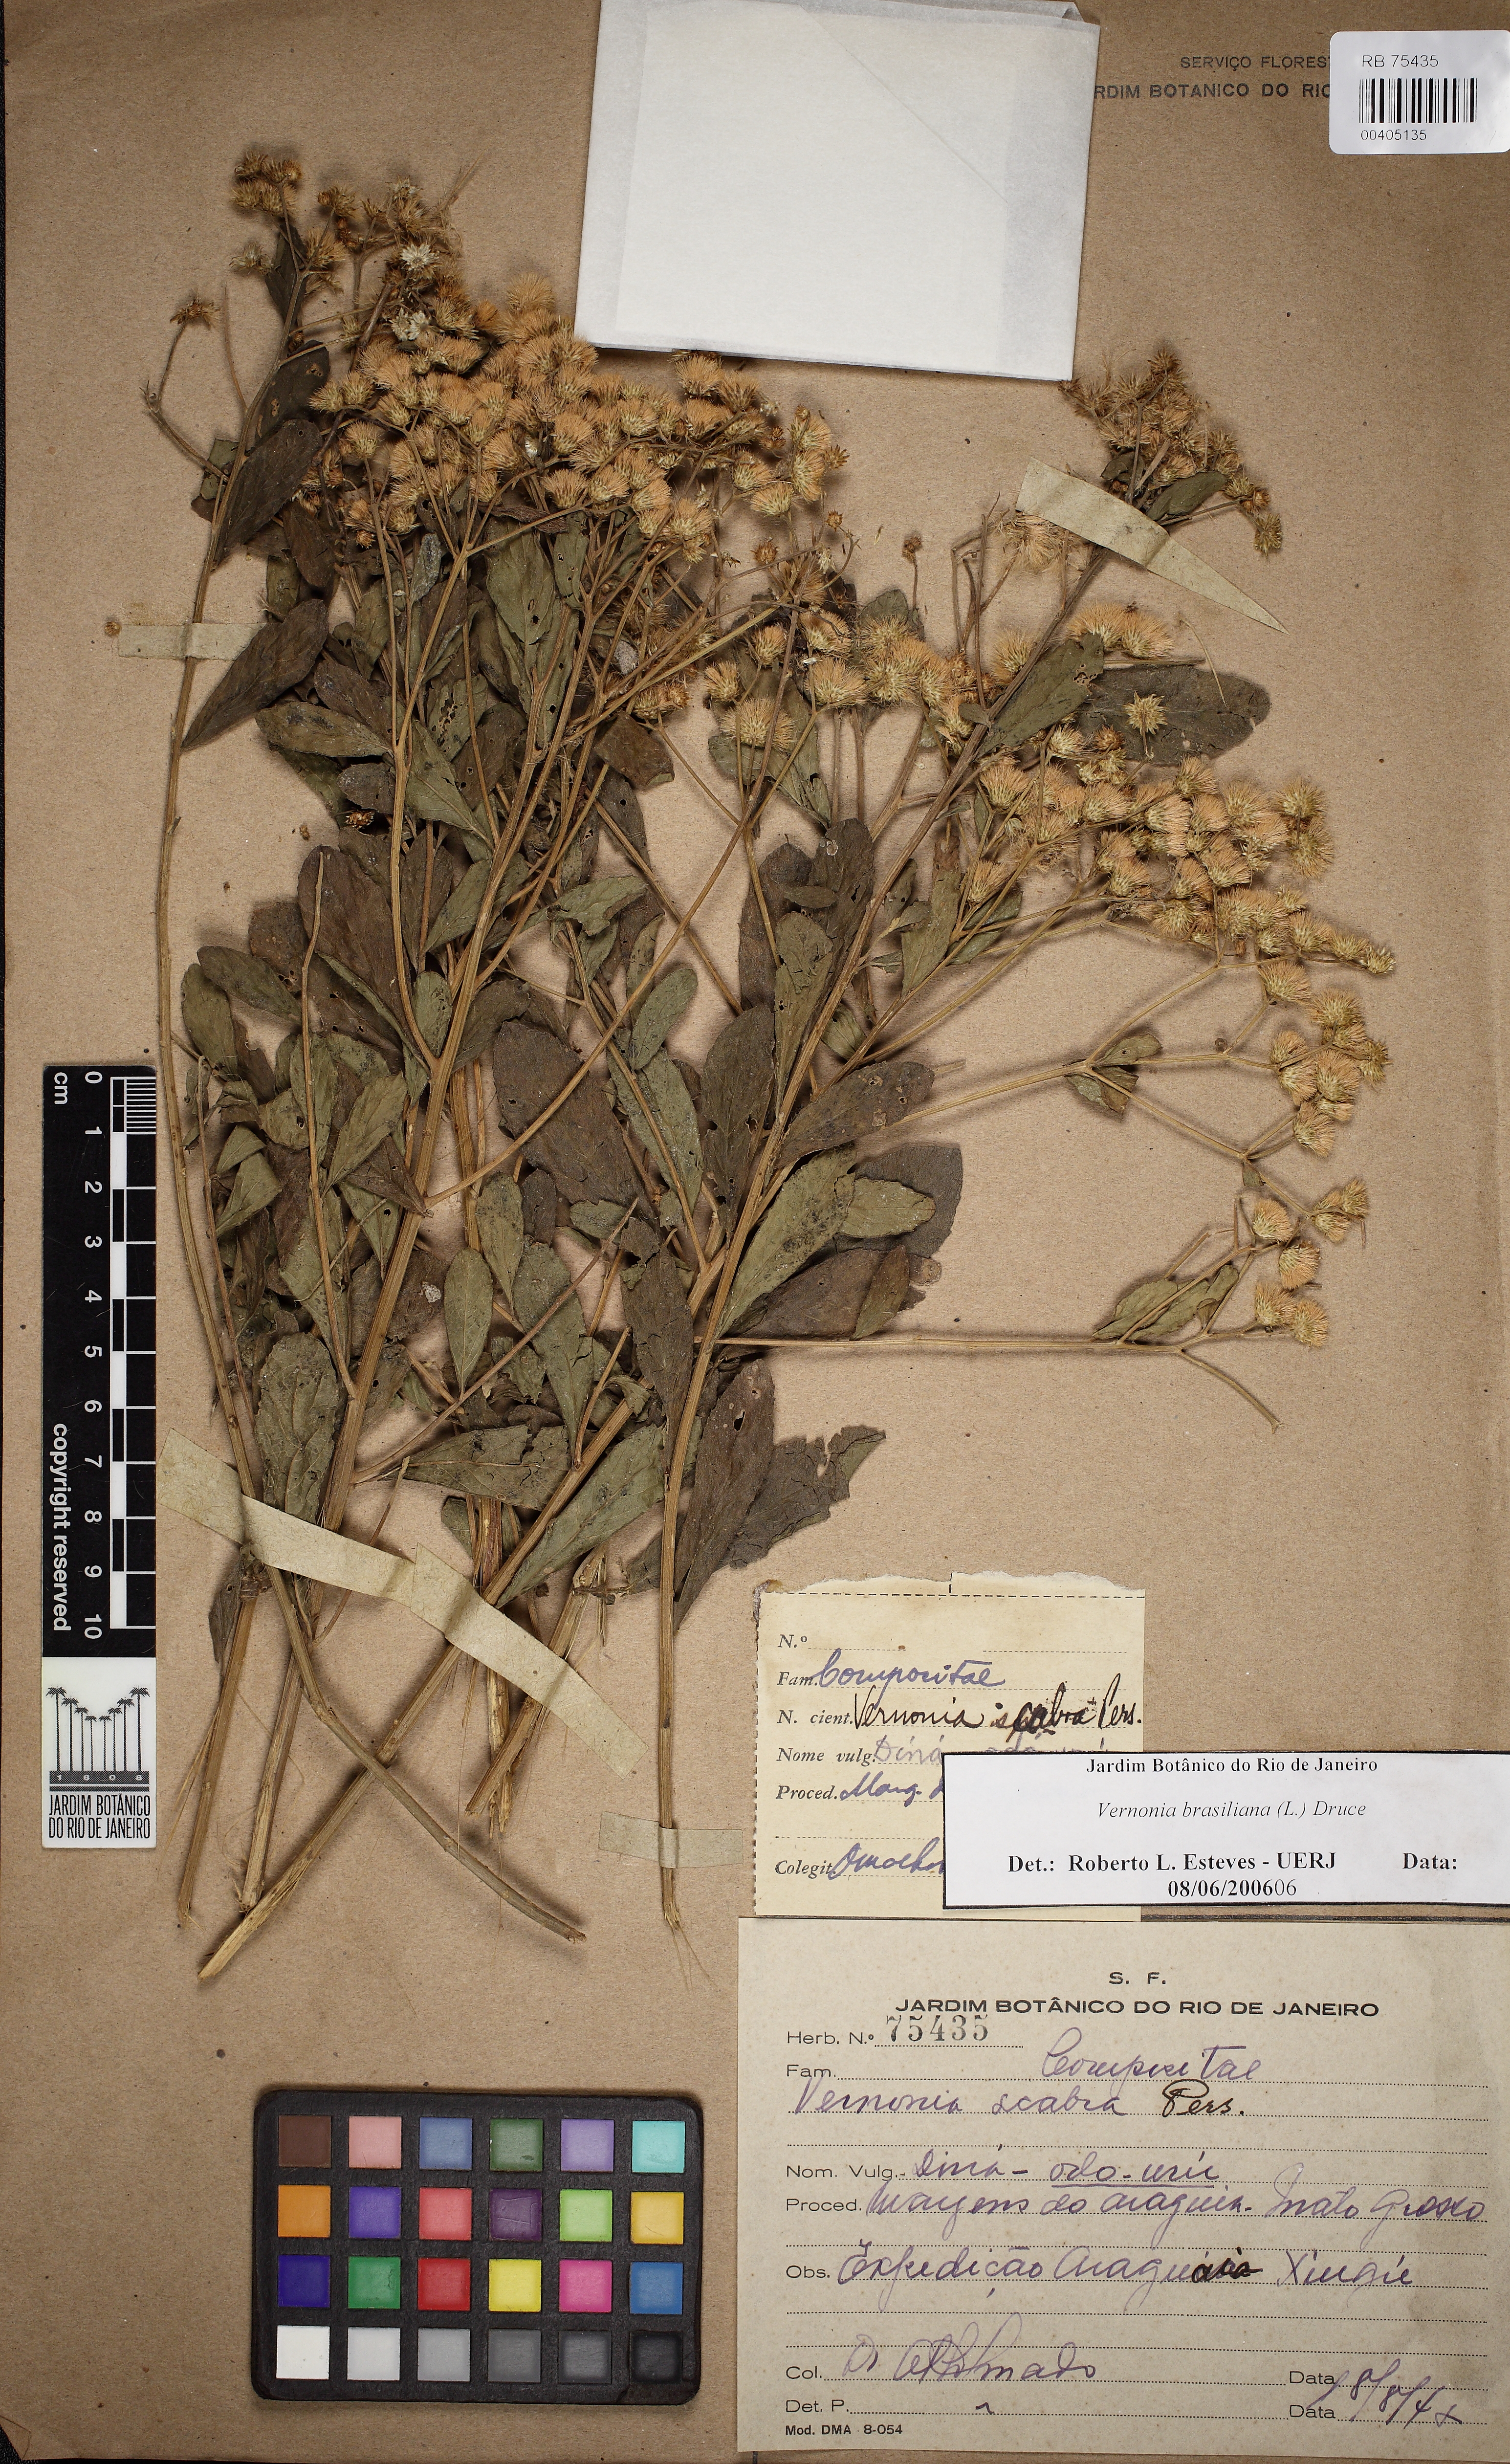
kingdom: Plantae
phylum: Tracheophyta
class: Magnoliopsida
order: Asterales
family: Asteraceae
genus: Vernonanthura
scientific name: Vernonanthura
